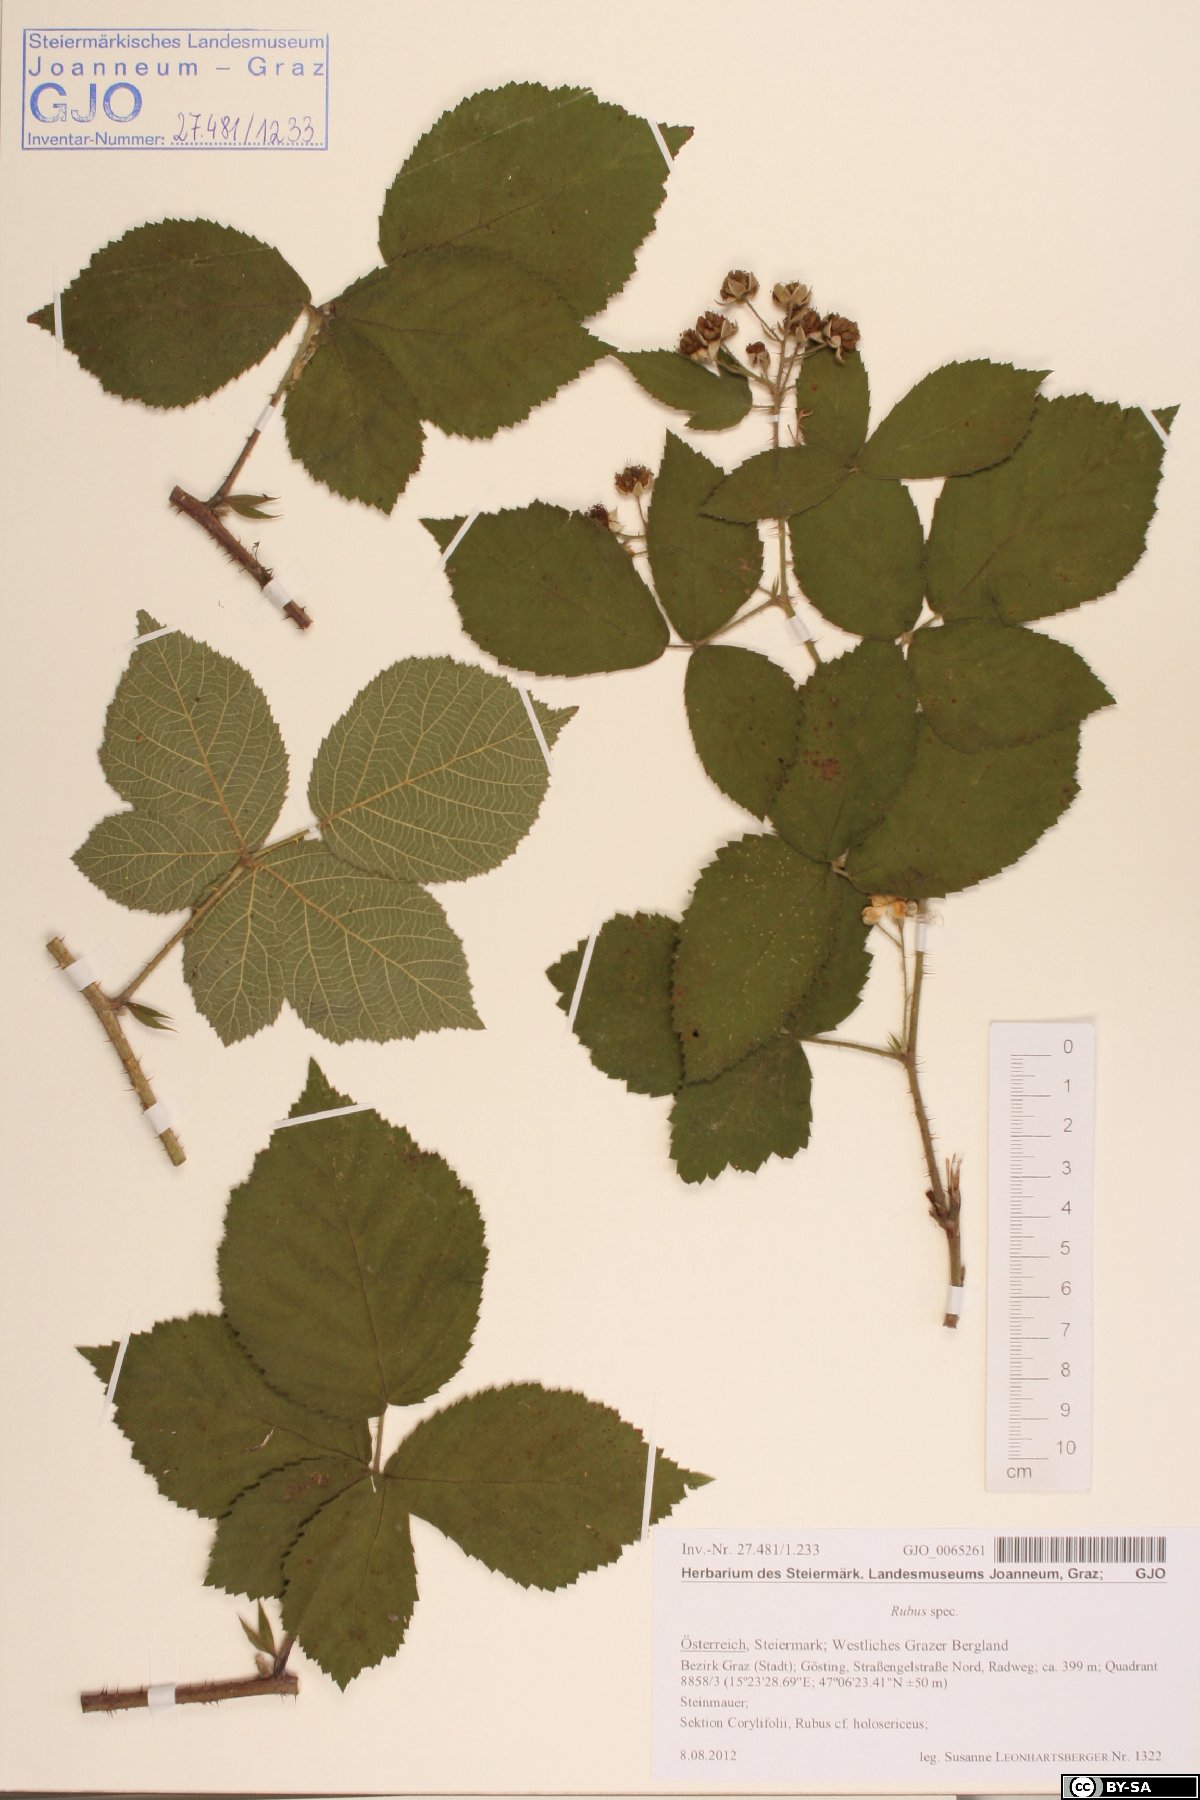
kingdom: Plantae
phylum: Tracheophyta
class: Magnoliopsida
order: Rosales
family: Rosaceae
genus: Rubus
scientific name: Rubus
